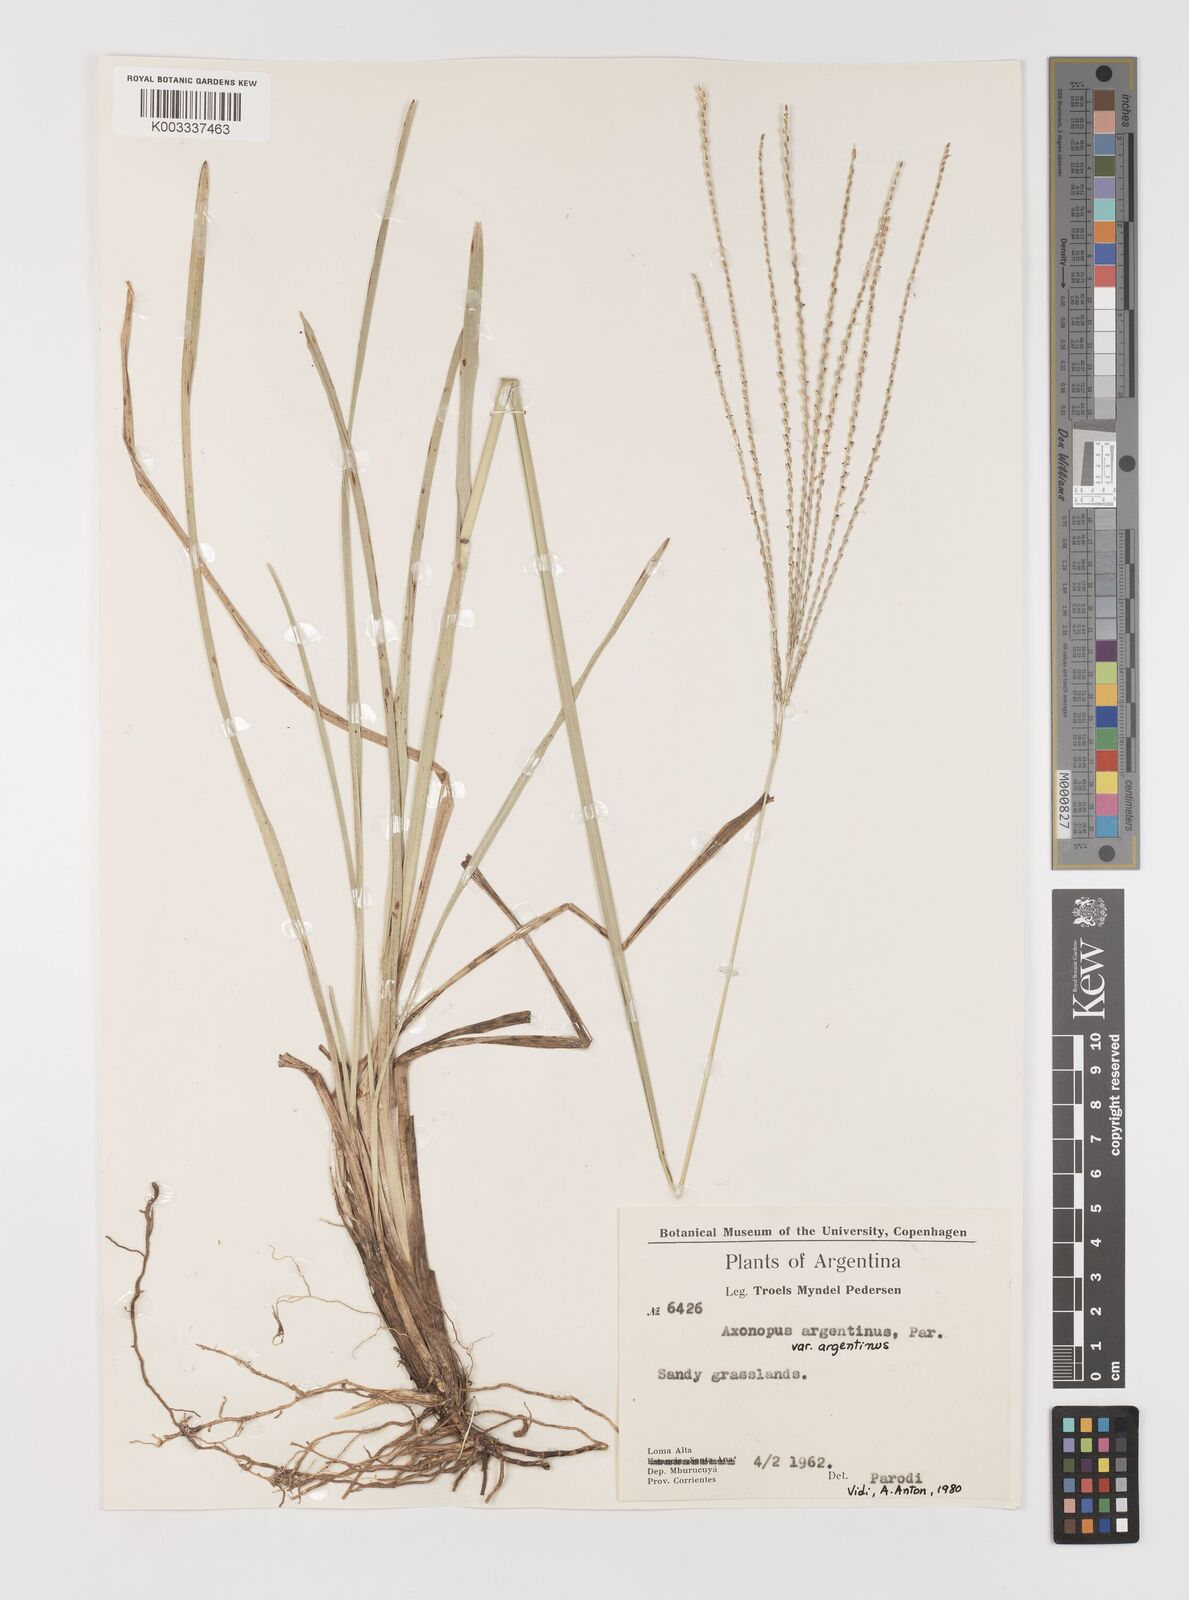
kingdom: Plantae
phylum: Tracheophyta
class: Liliopsida
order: Poales
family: Poaceae
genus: Axonopus
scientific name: Axonopus argentinus
